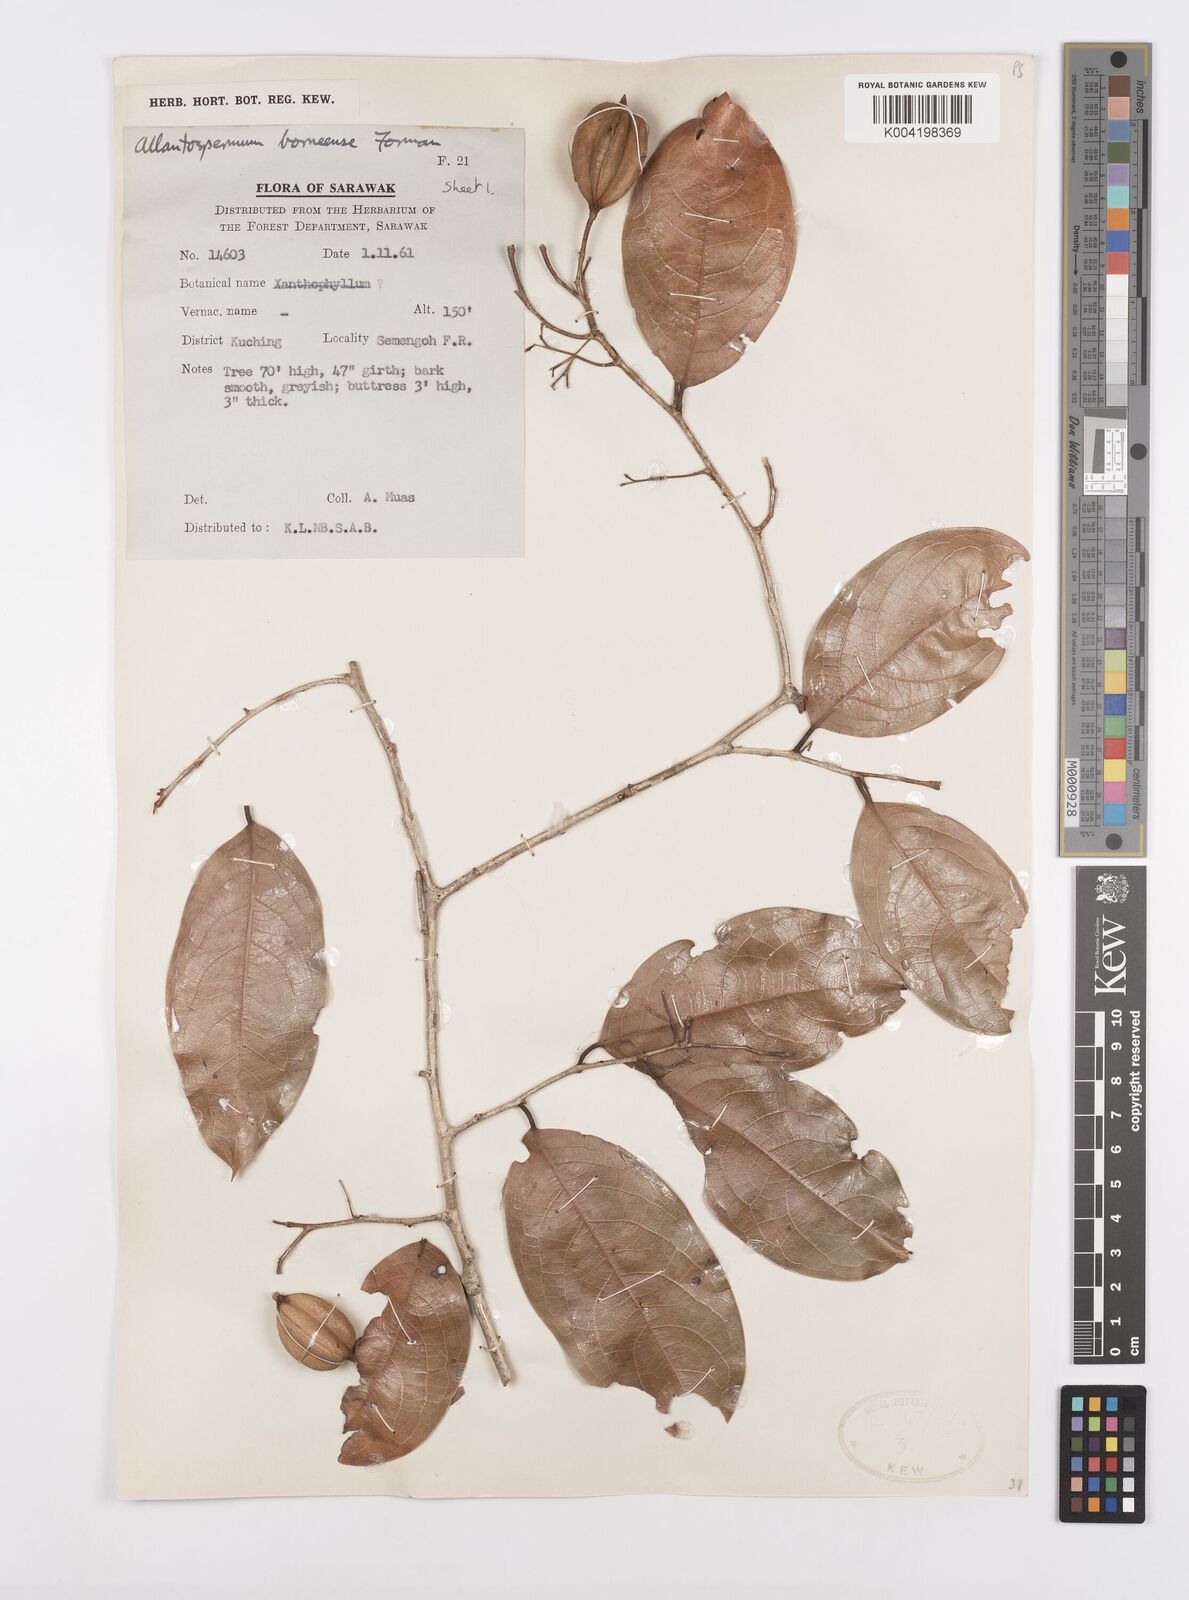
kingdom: Plantae
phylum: Tracheophyta
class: Magnoliopsida
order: Malpighiales
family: Ixonanthaceae
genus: Allantospermum
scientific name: Allantospermum borneense
